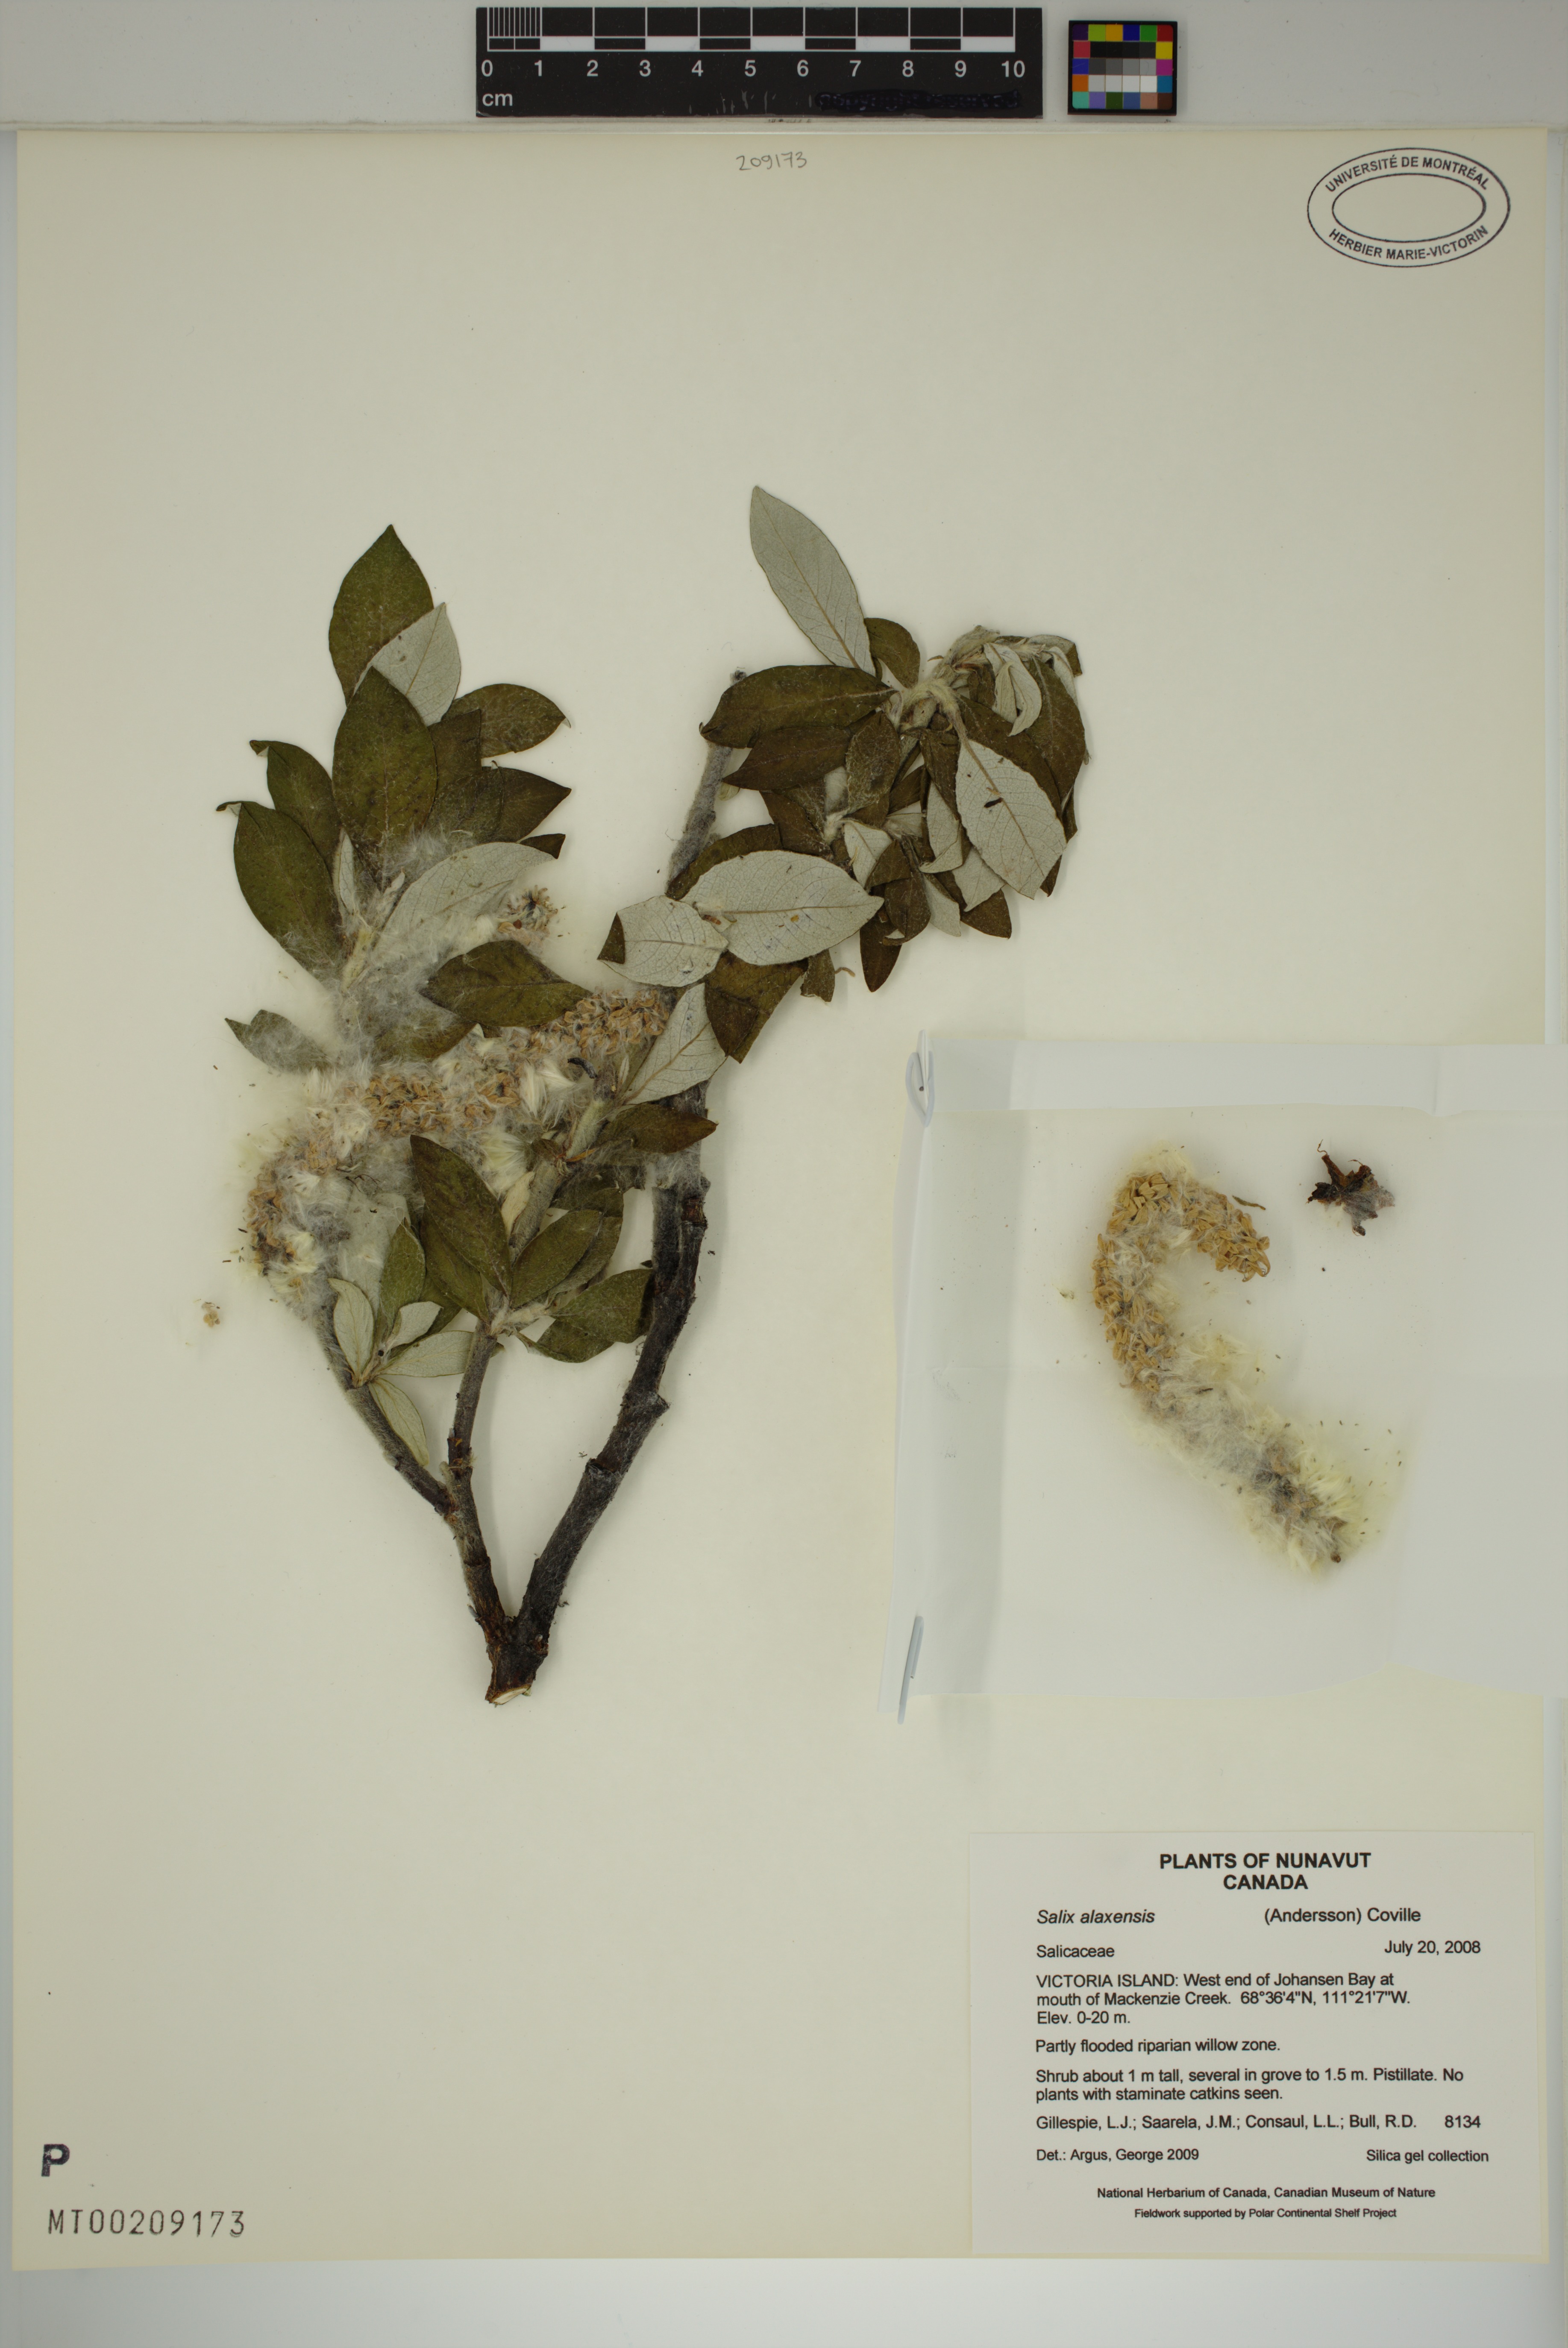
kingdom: Plantae
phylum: Tracheophyta
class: Magnoliopsida
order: Malpighiales
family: Salicaceae
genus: Salix
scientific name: Salix alaxensis
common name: Feltleaf willow
